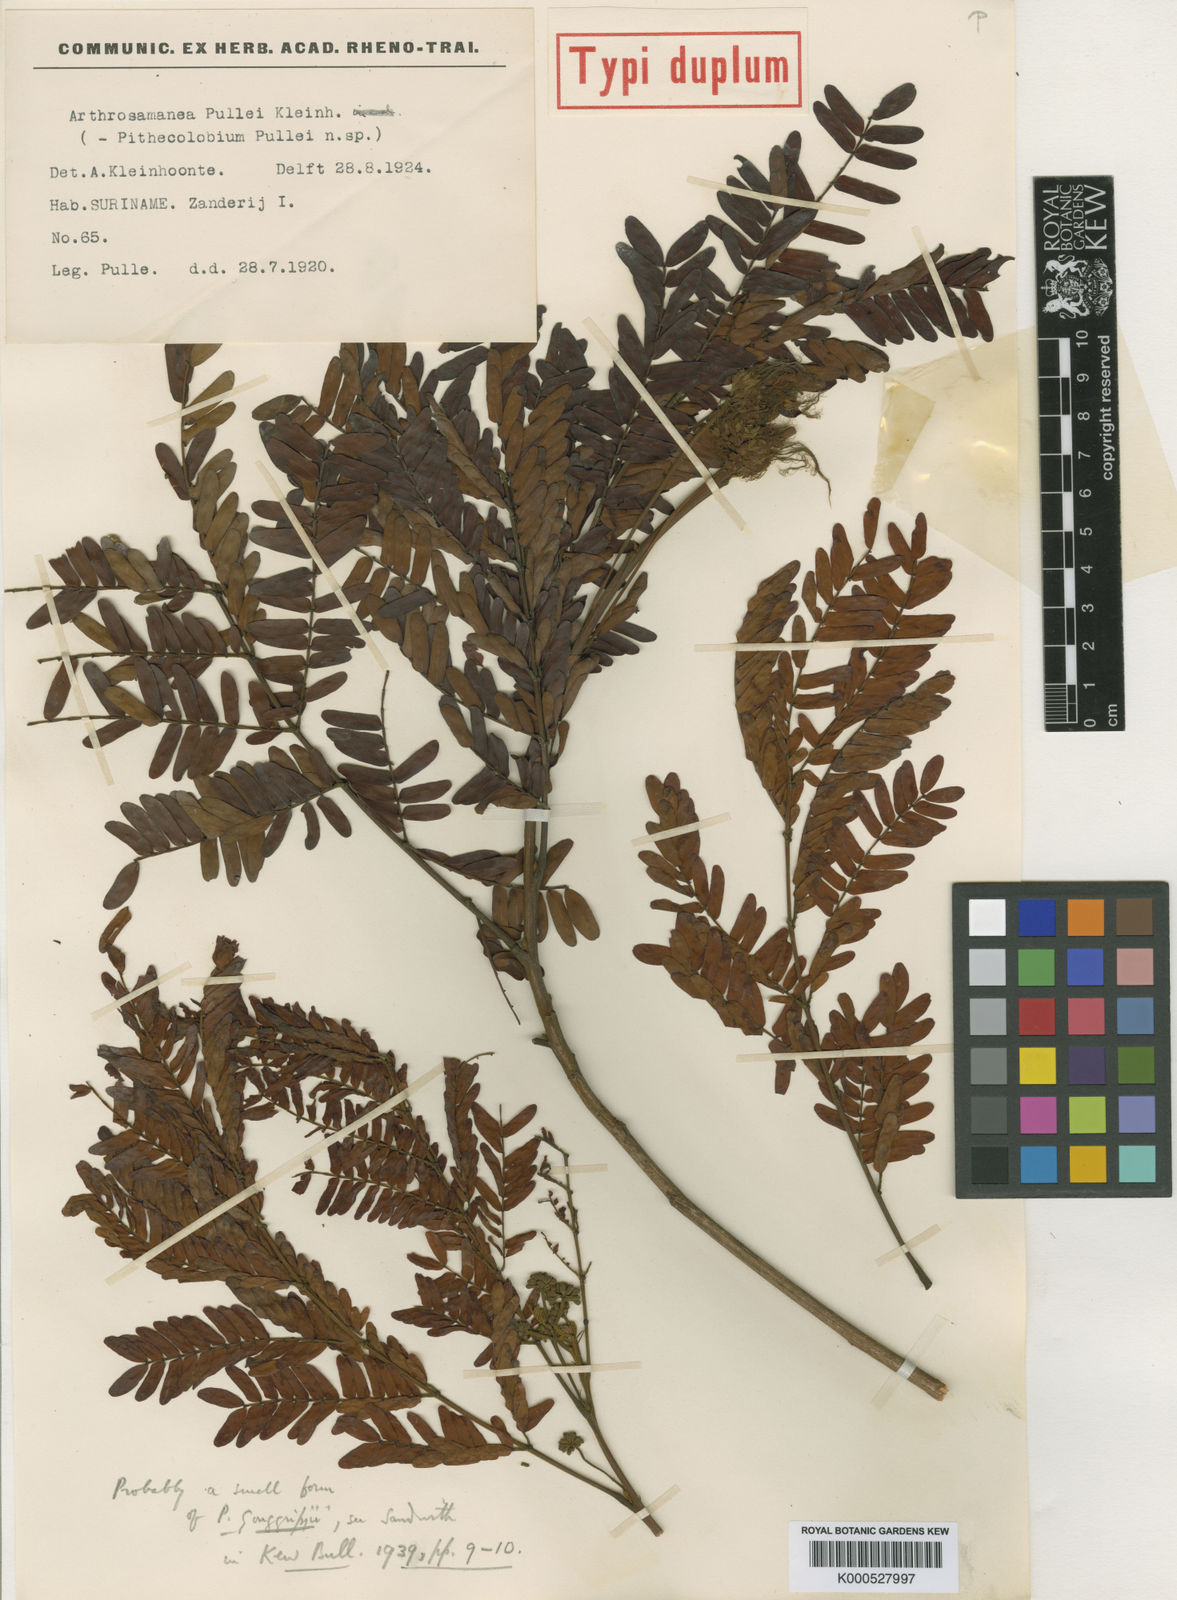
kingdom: Plantae
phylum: Tracheophyta
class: Magnoliopsida
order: Fabales
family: Fabaceae
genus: Hydrochorea
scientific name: Hydrochorea gonggrijpii
